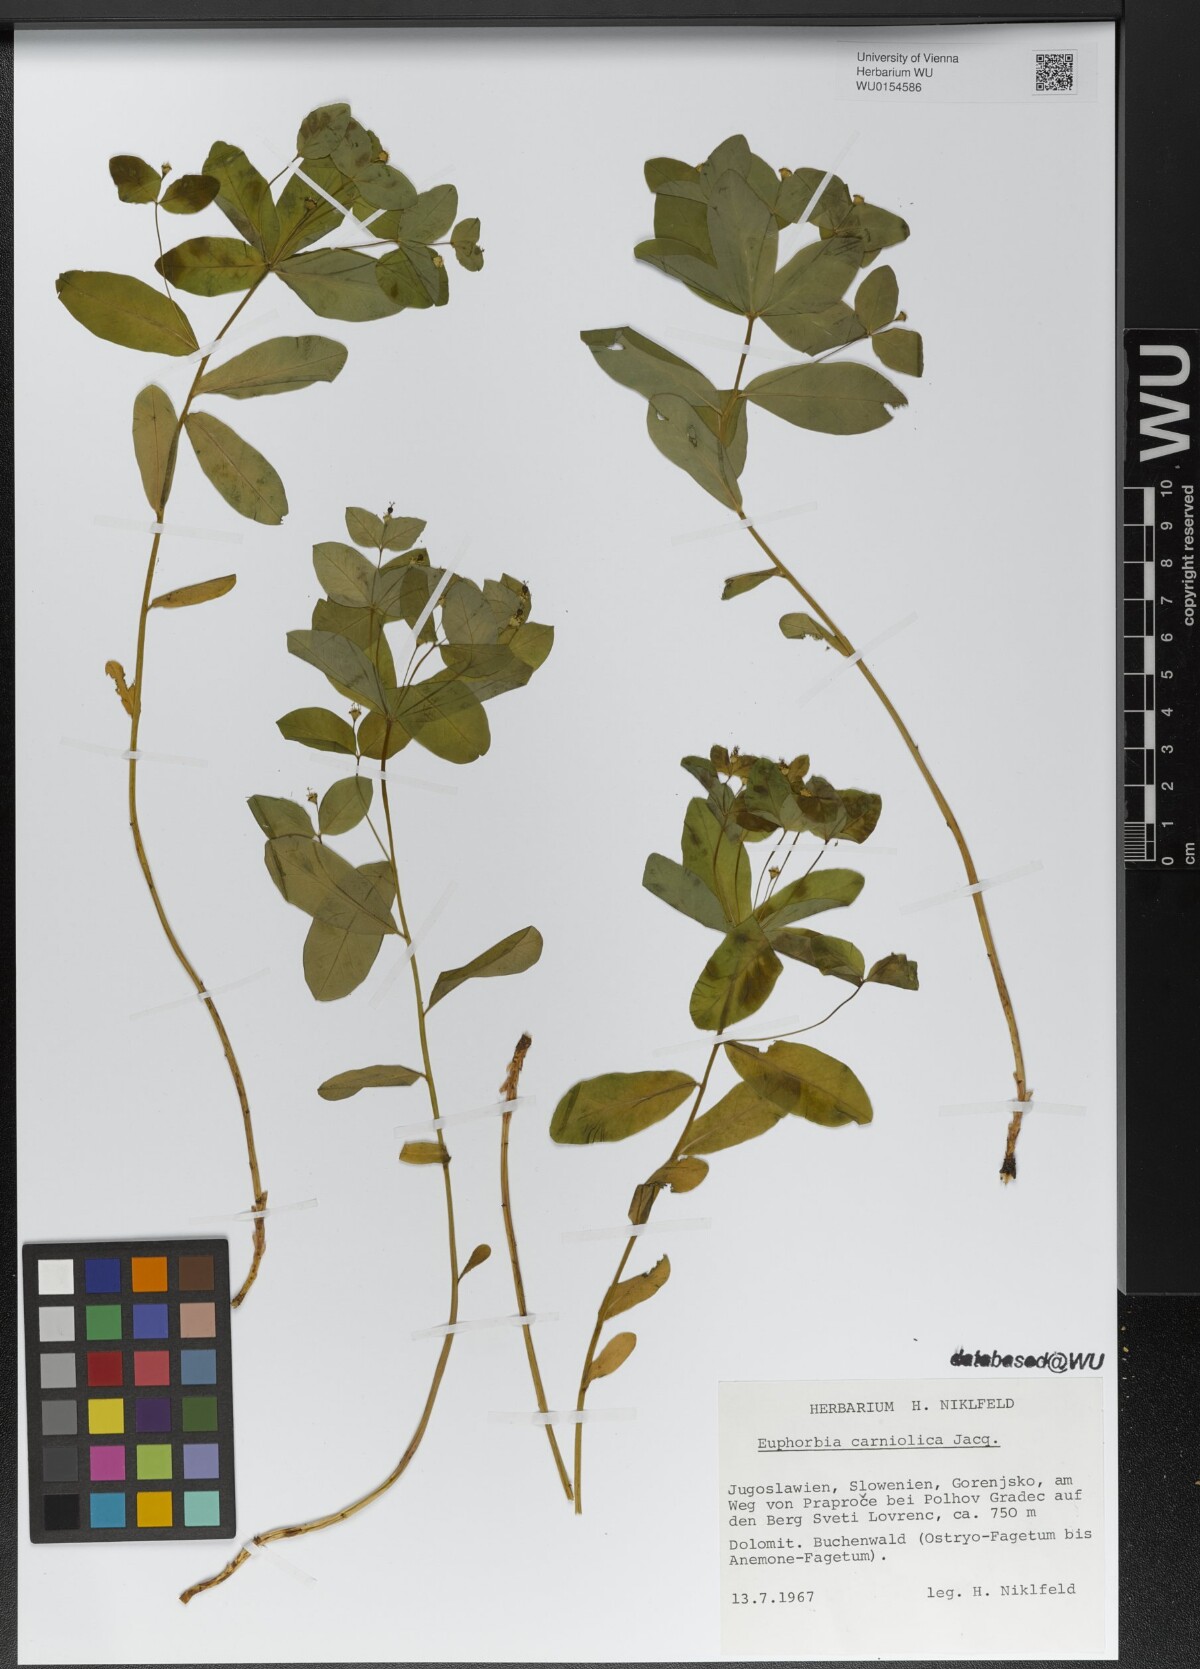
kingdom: Plantae
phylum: Tracheophyta
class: Magnoliopsida
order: Malpighiales
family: Euphorbiaceae
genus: Euphorbia
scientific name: Euphorbia carniolica
